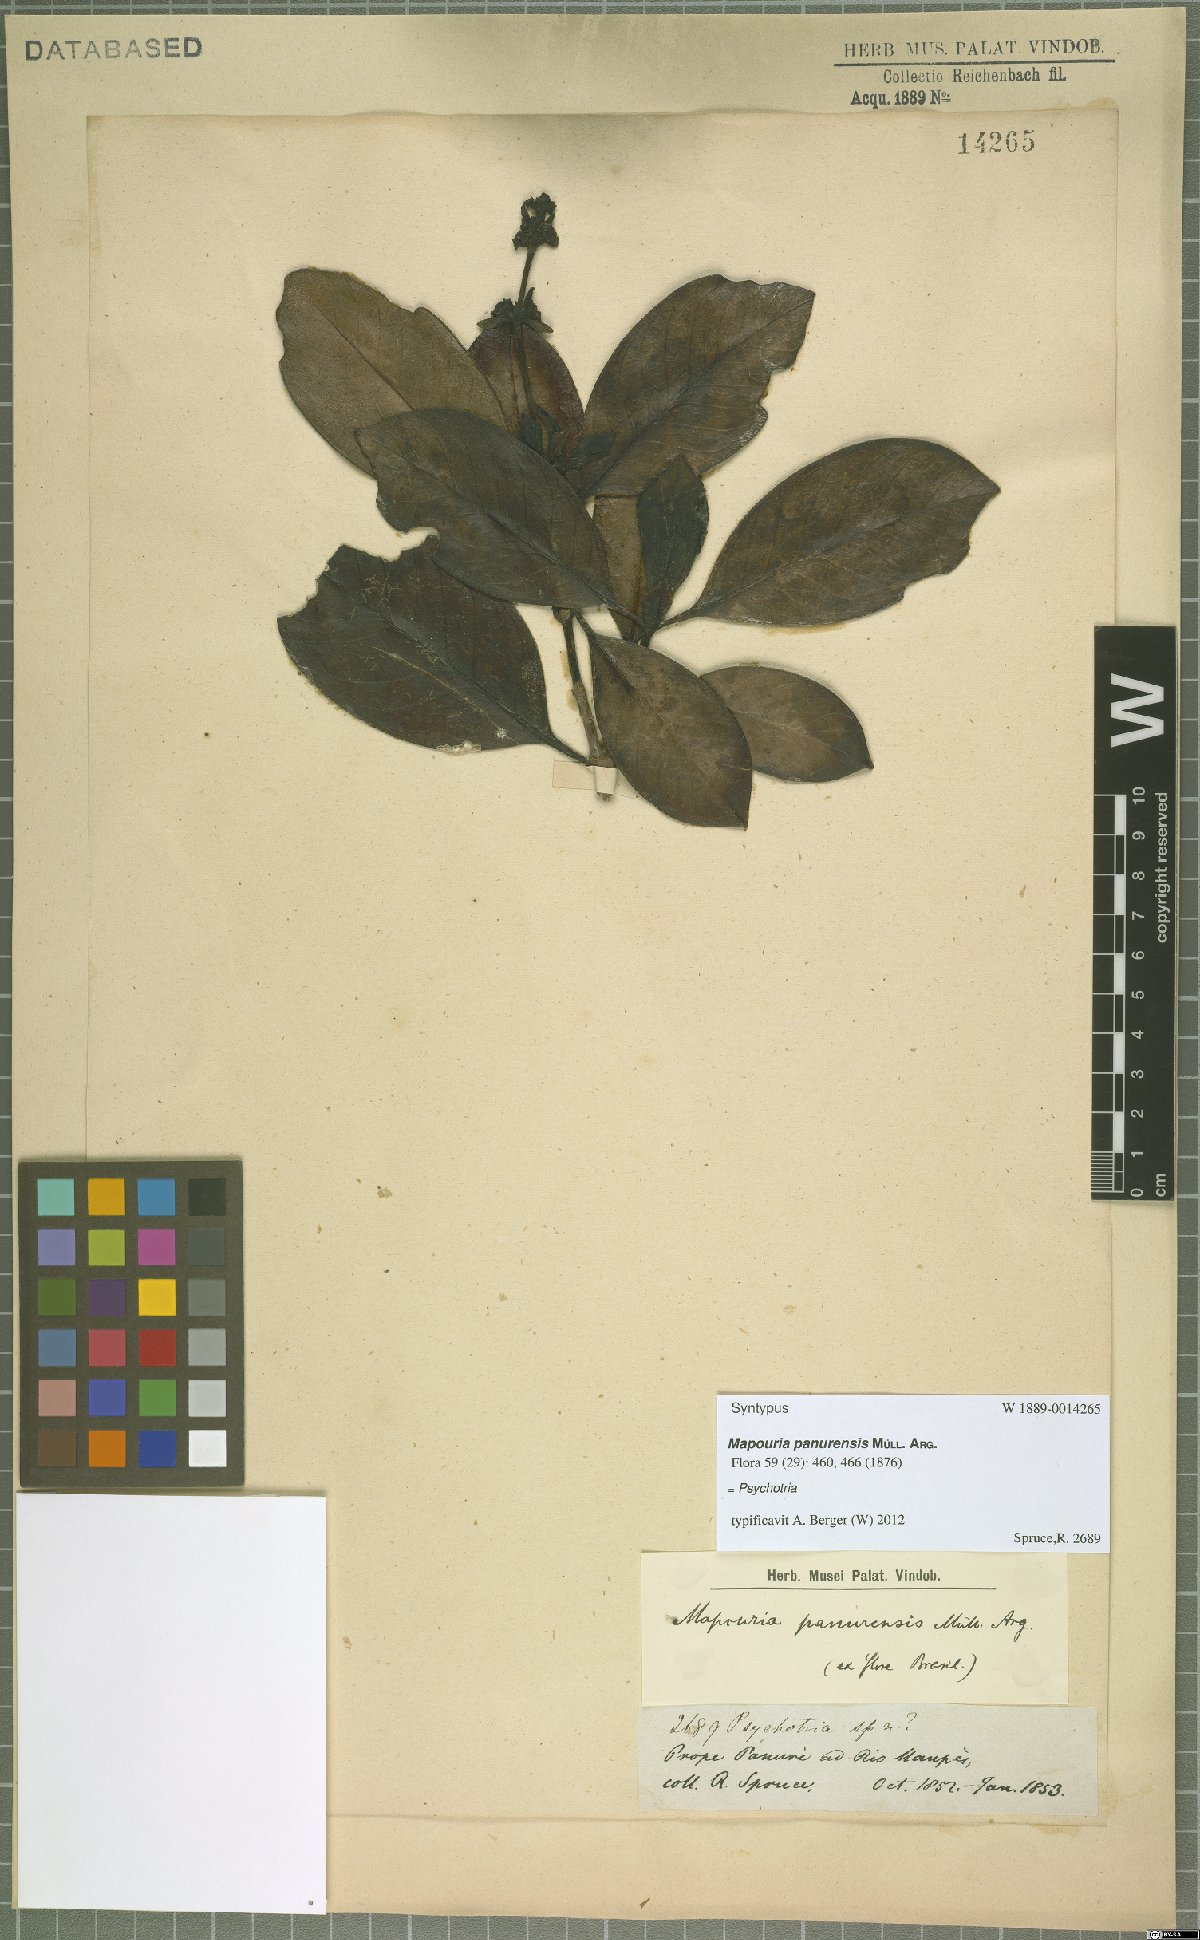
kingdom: Plantae
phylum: Tracheophyta
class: Magnoliopsida
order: Gentianales
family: Rubiaceae
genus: Carapichea
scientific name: Carapichea panurensis
